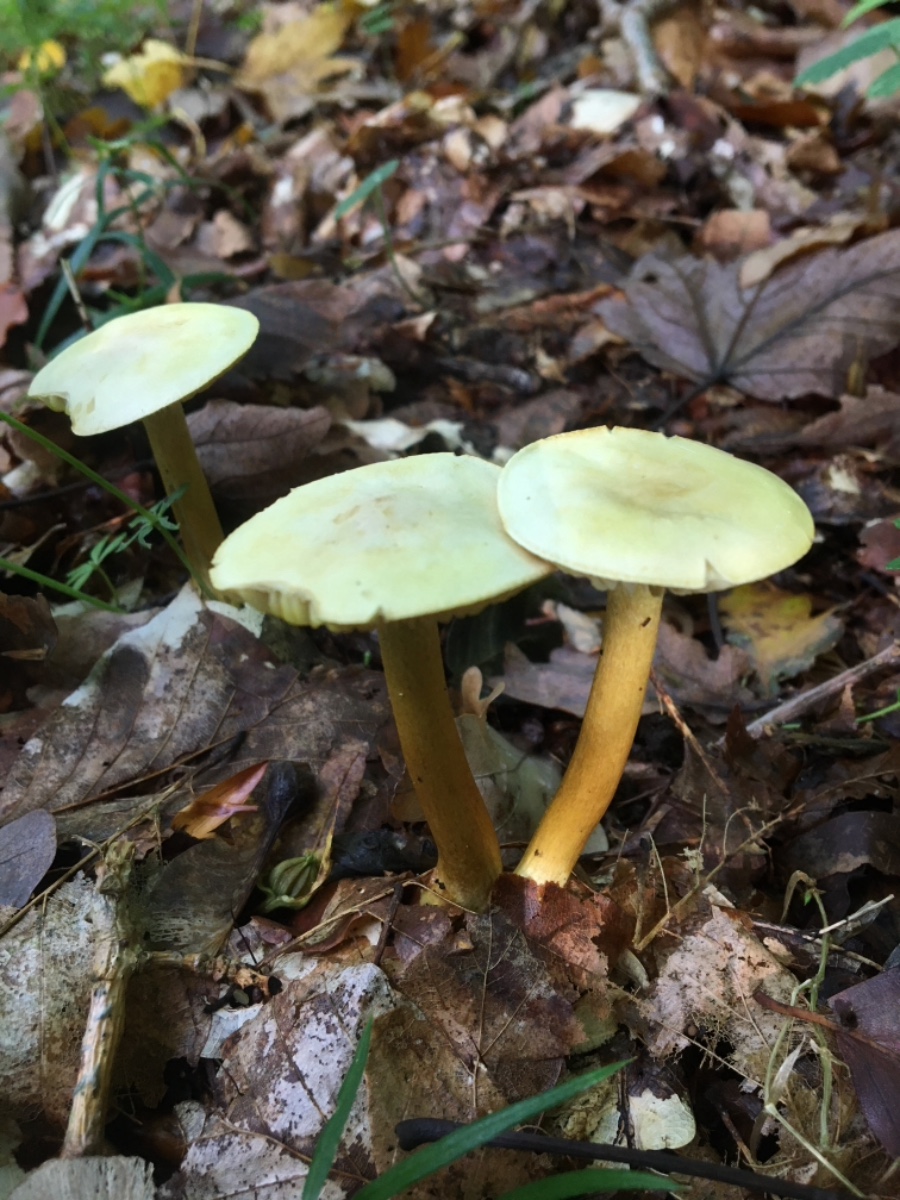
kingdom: Fungi
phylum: Basidiomycota
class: Agaricomycetes
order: Agaricales
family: Tricholomataceae
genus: Tricholoma
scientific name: Tricholoma sulphureum
